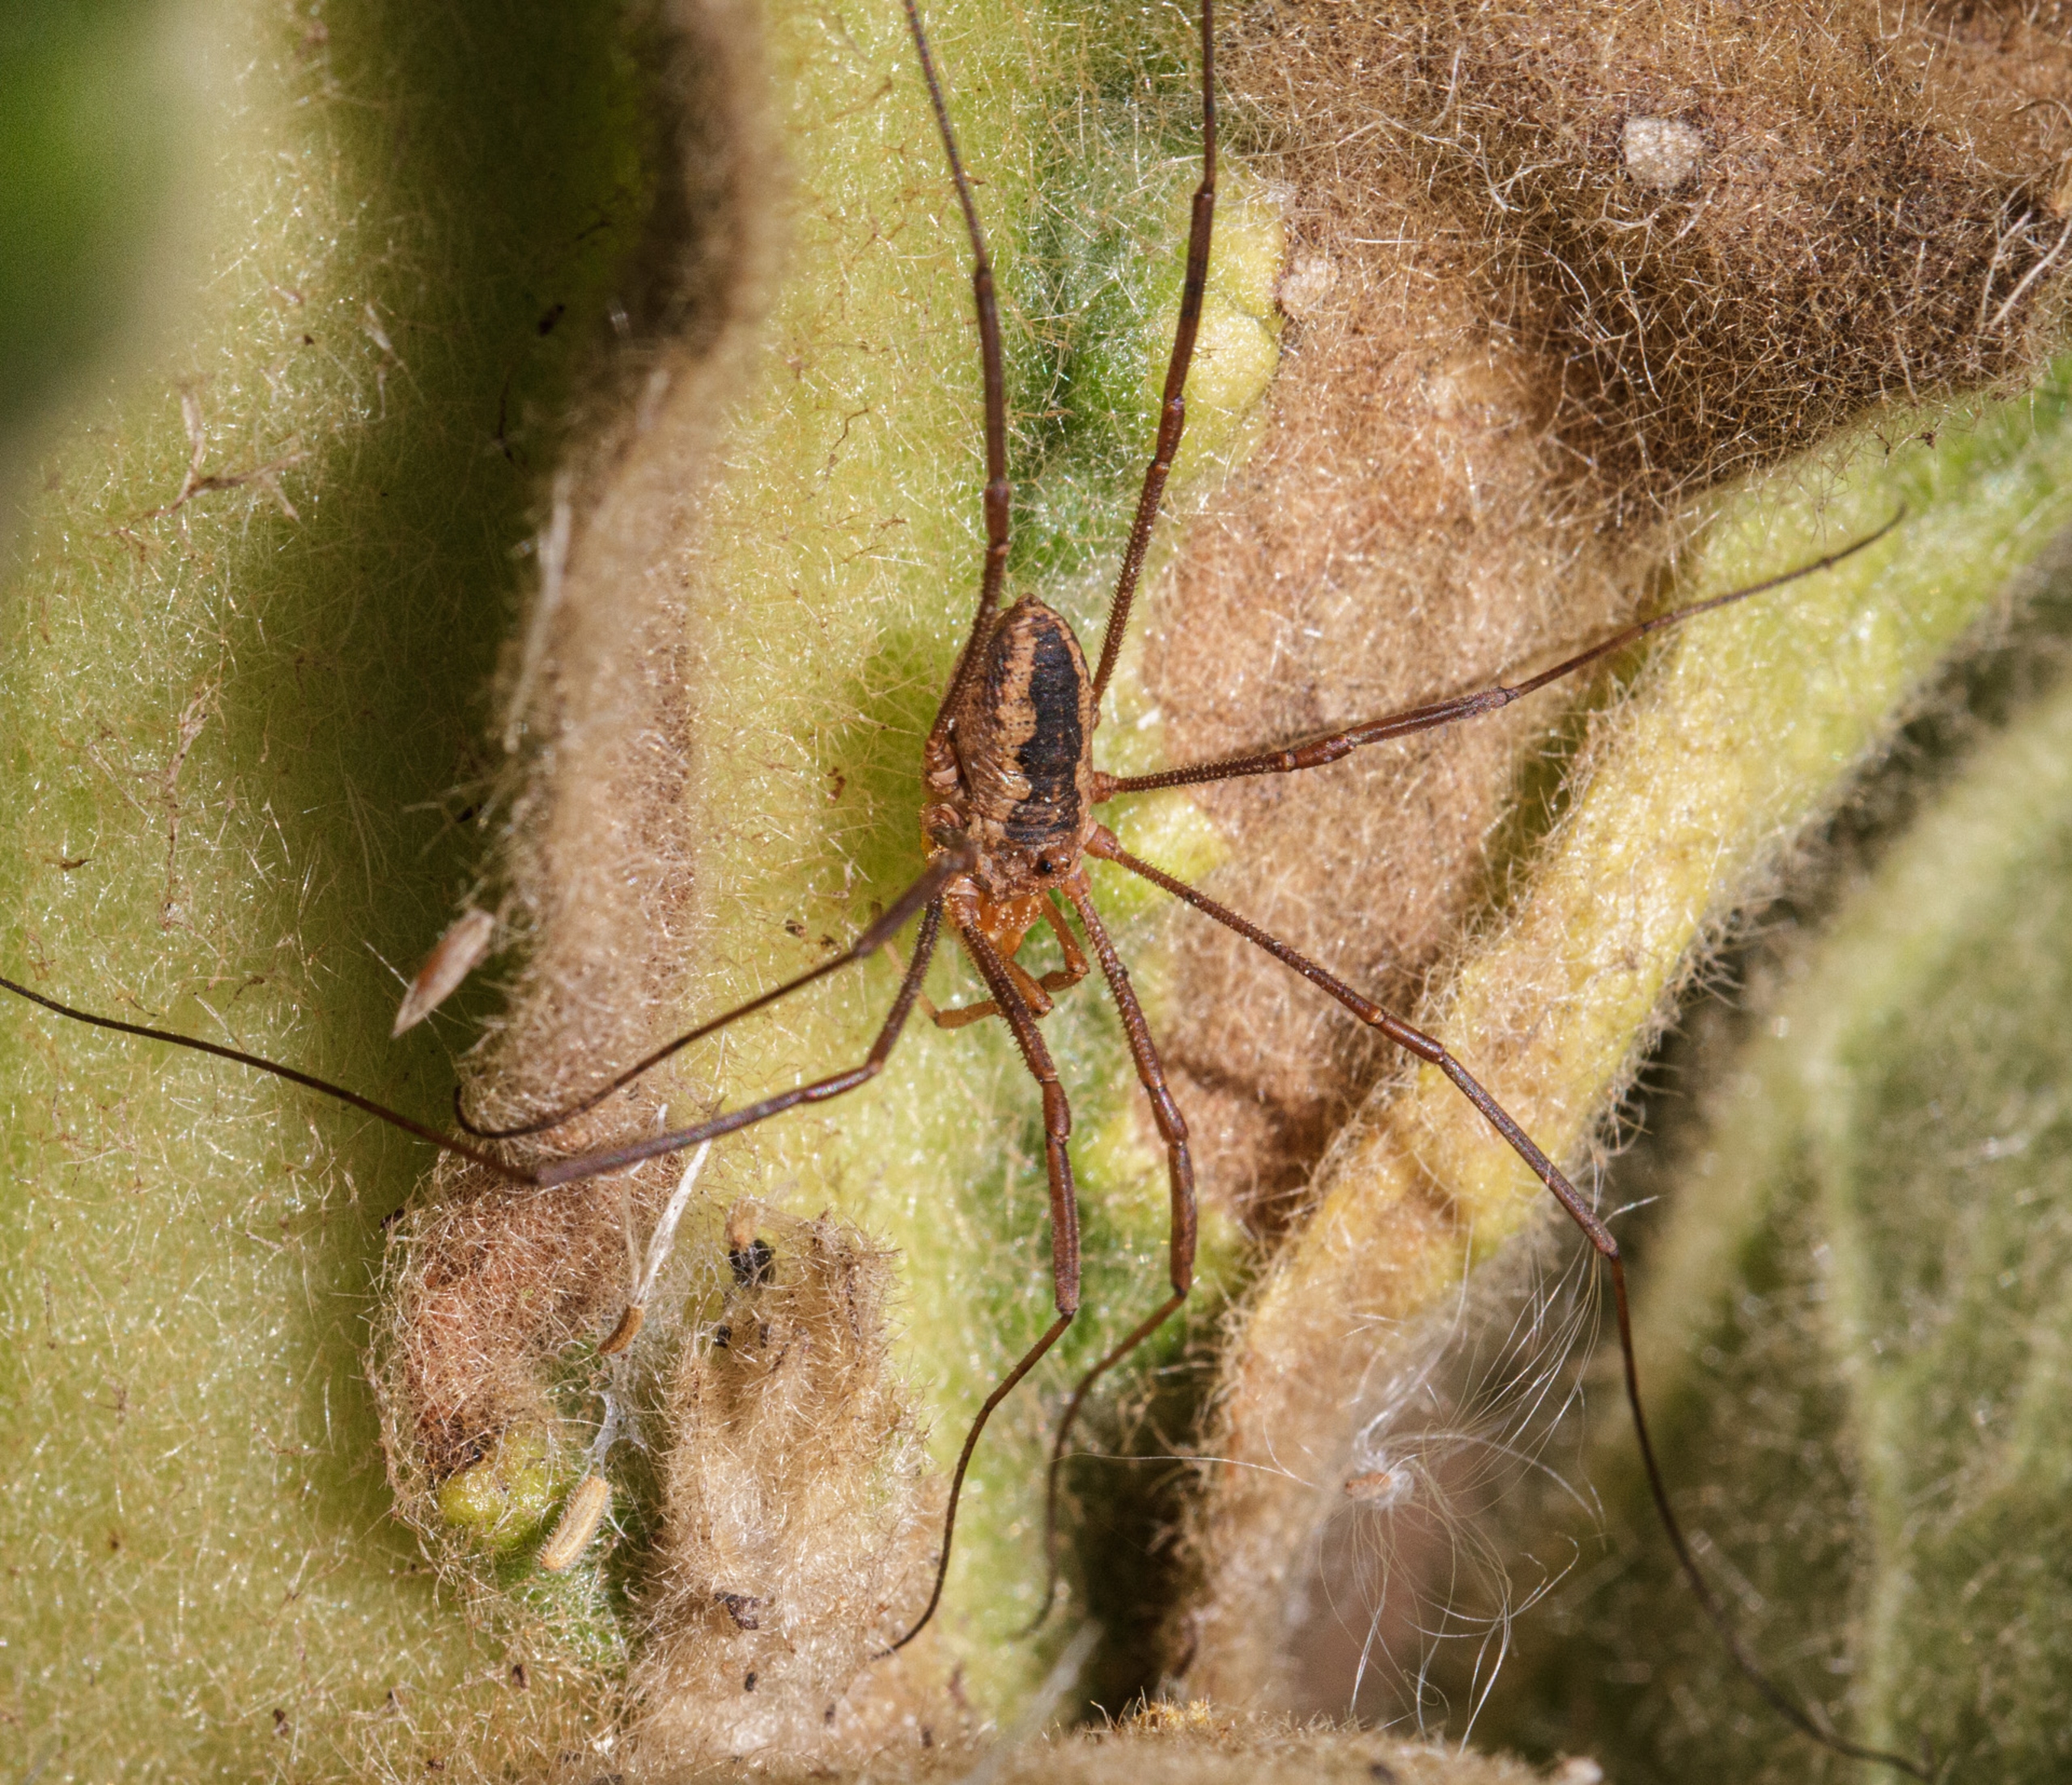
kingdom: Animalia
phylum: Arthropoda
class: Arachnida
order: Opiliones
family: Phalangiidae
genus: Phalangium
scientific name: Phalangium opilio
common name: Hornmejer
